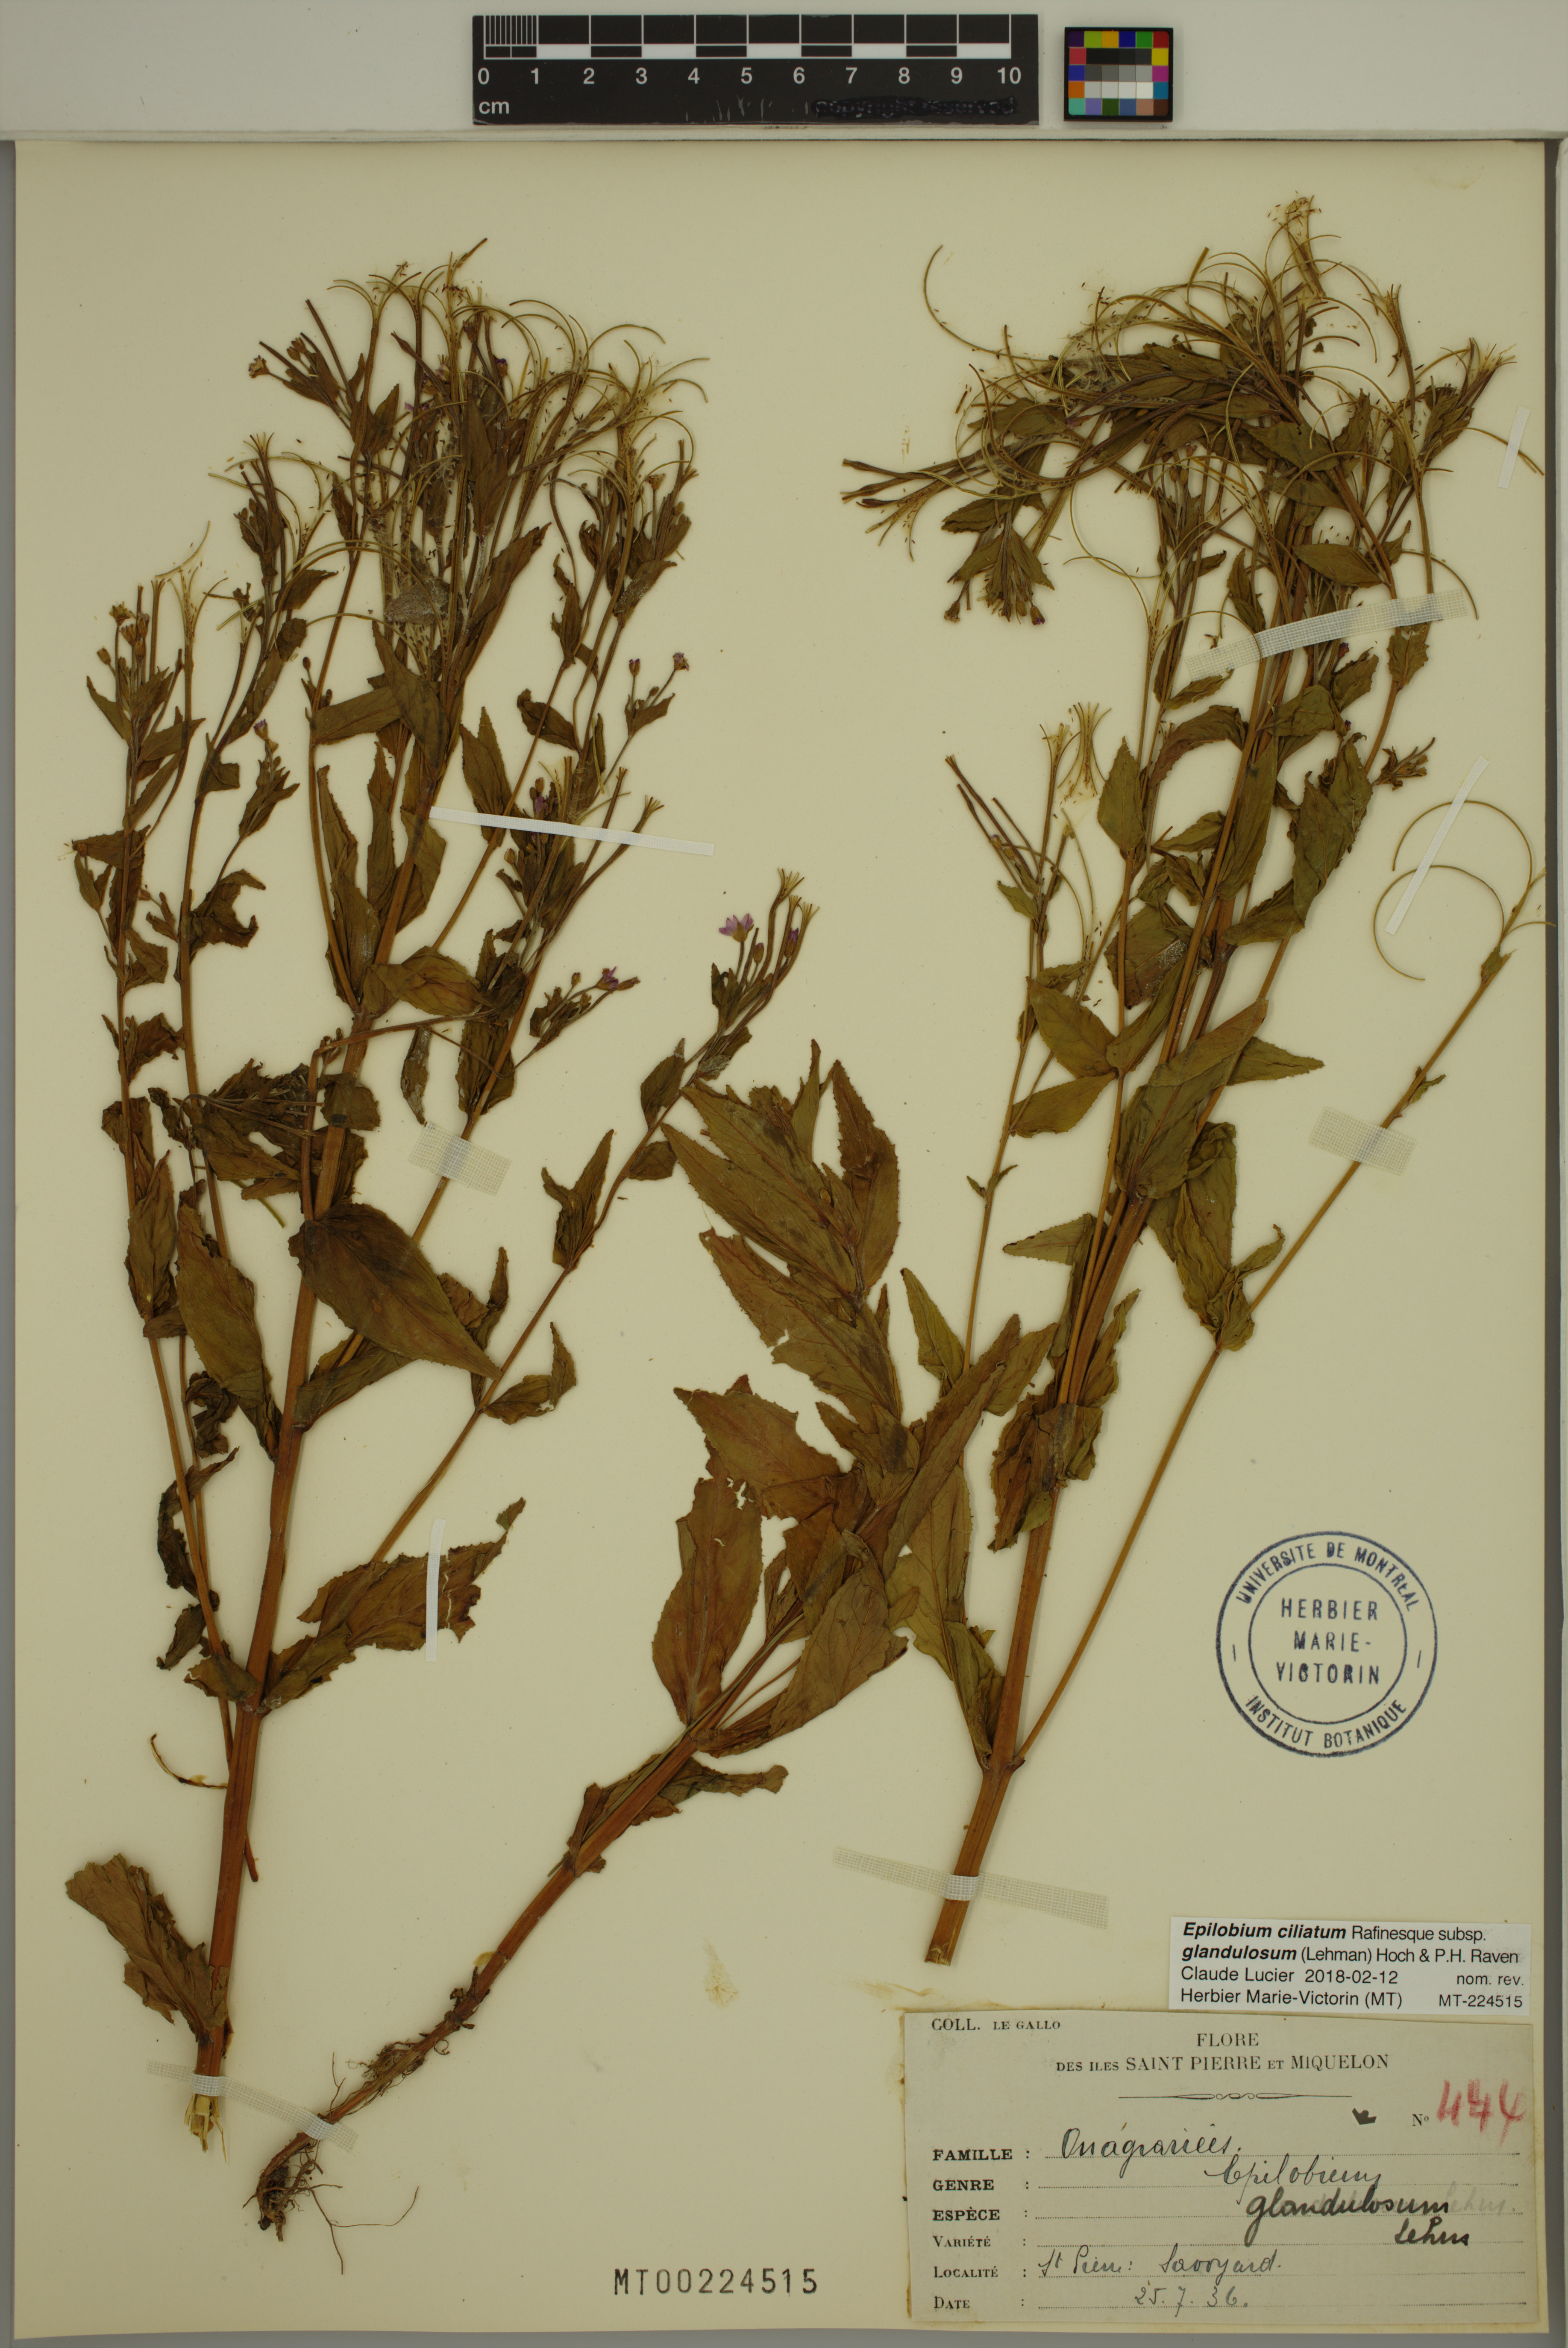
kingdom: Plantae
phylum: Tracheophyta
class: Magnoliopsida
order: Myrtales
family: Onagraceae
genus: Epilobium
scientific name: Epilobium ciliatum
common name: American willowherb
